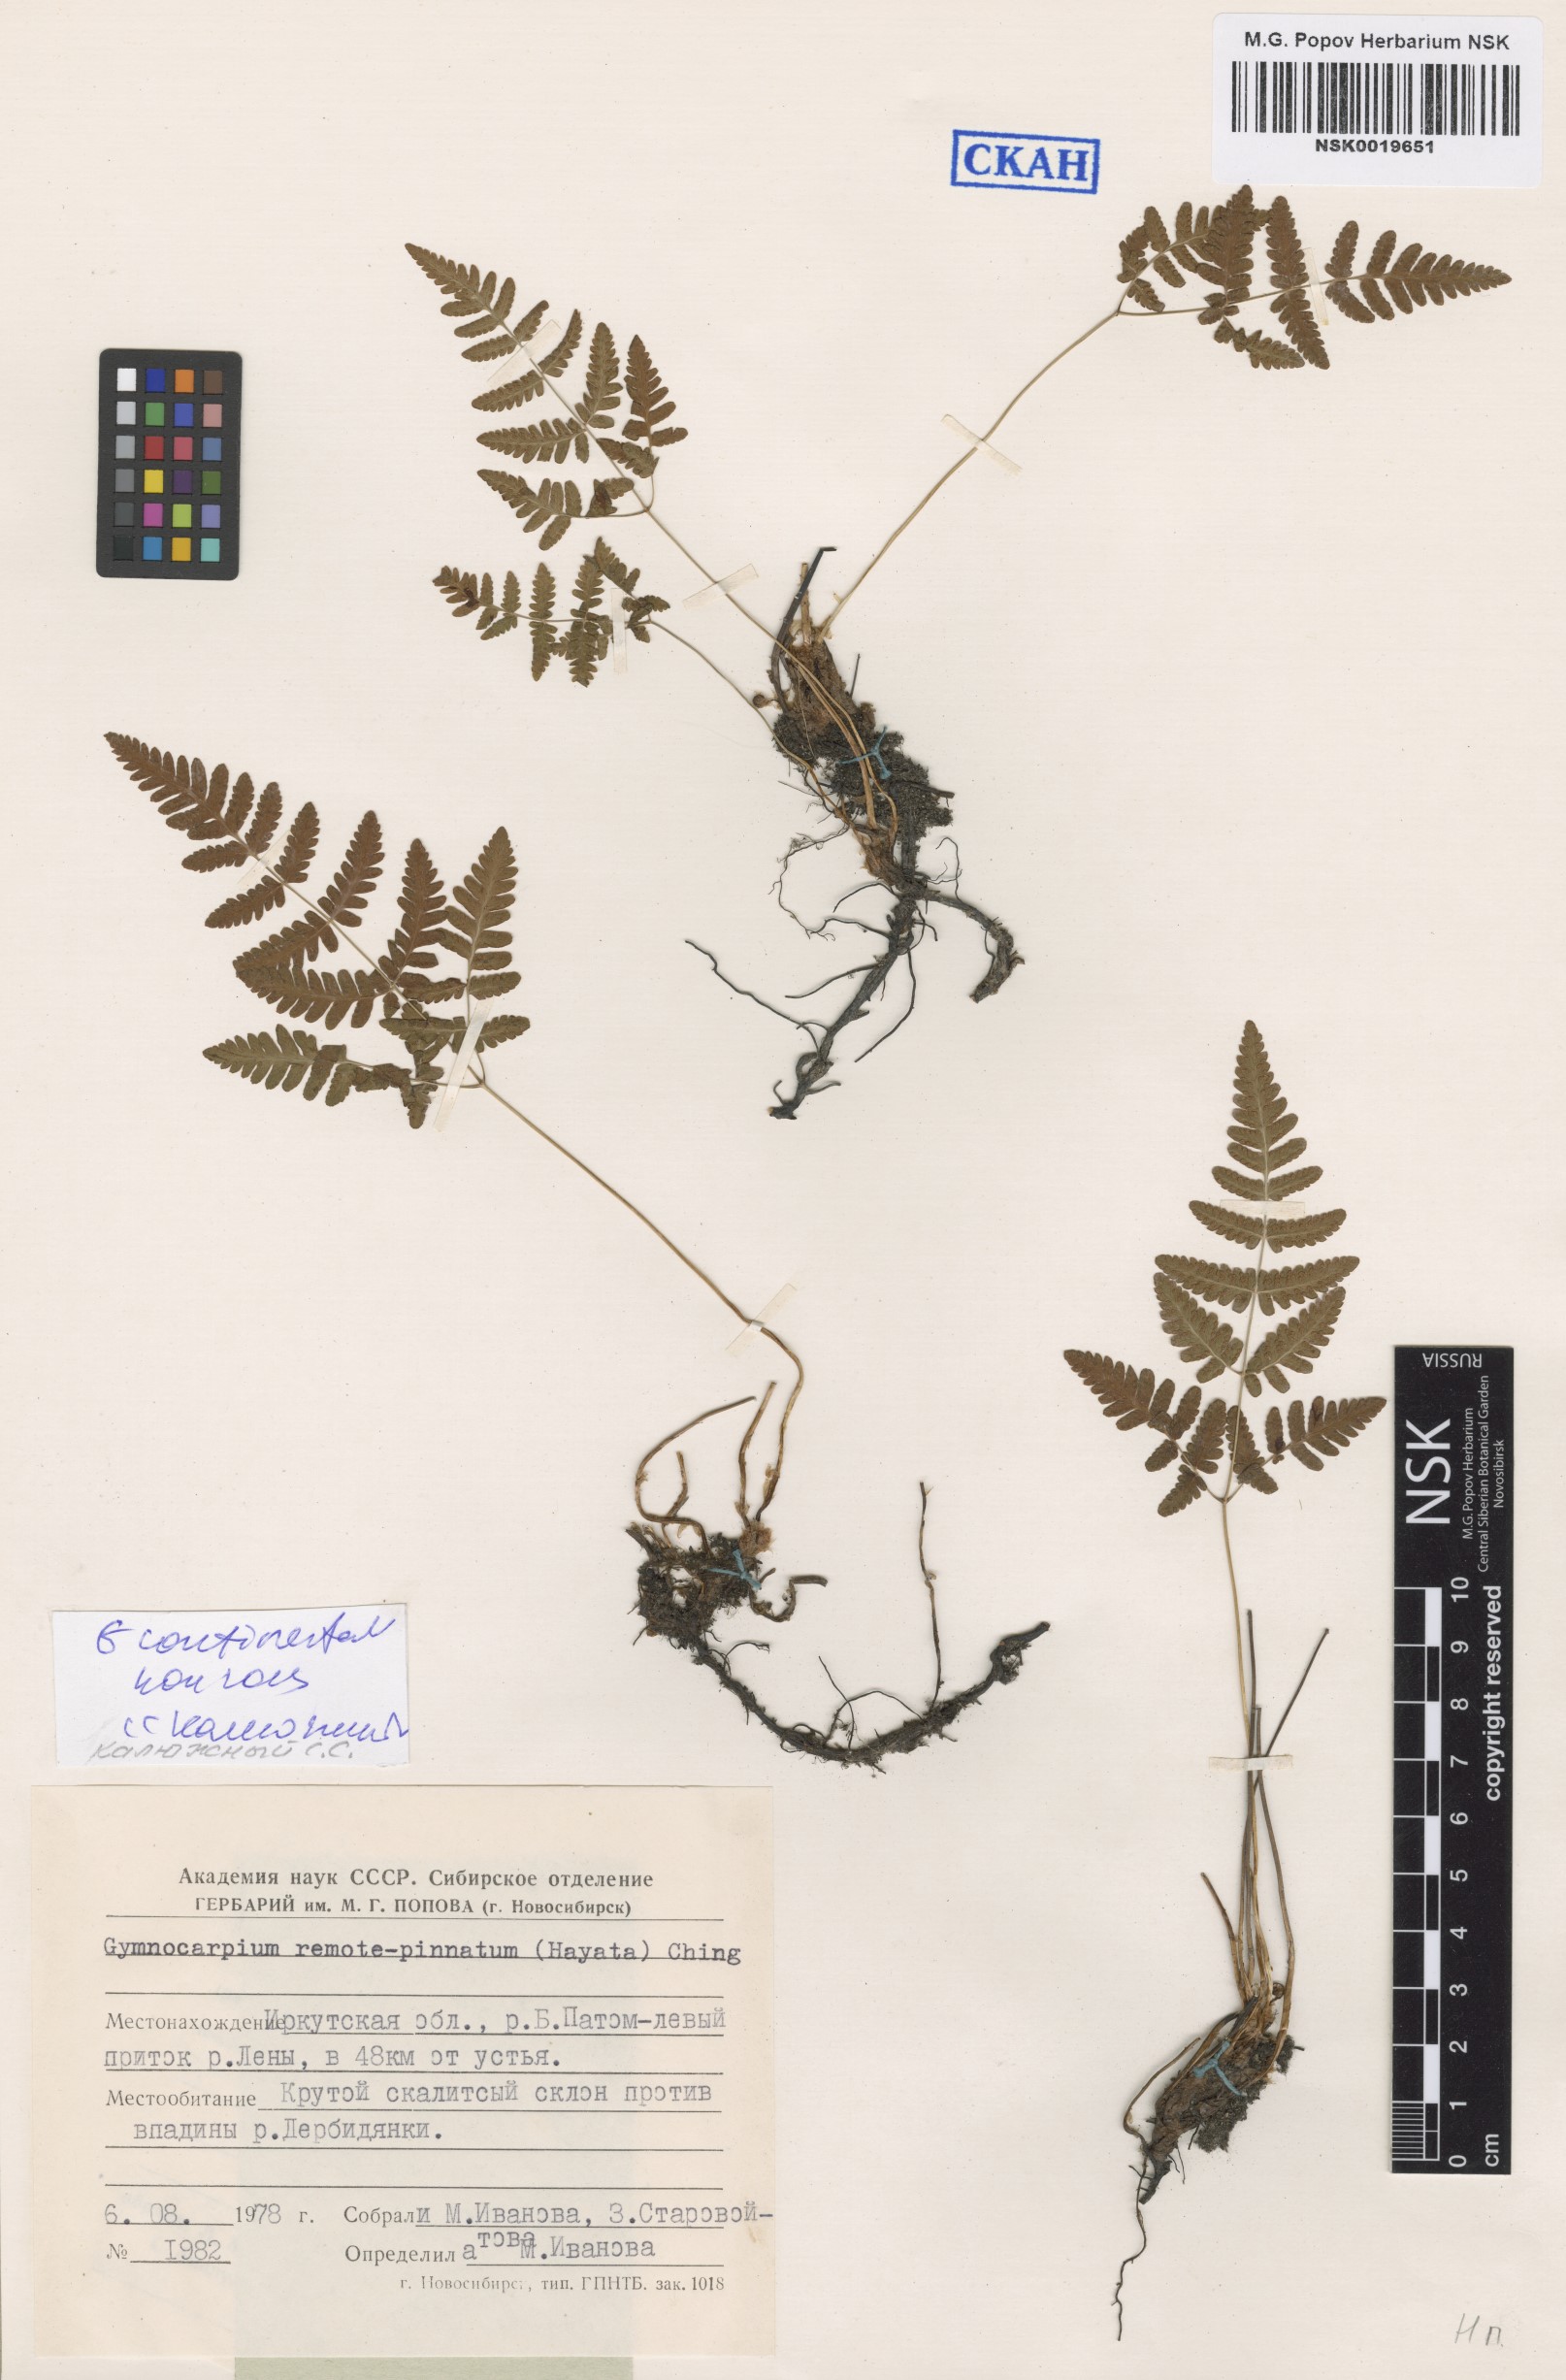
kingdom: Plantae
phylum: Tracheophyta
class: Polypodiopsida
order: Polypodiales
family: Cystopteridaceae
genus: Gymnocarpium
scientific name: Gymnocarpium continentale
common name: Asian oak fern
